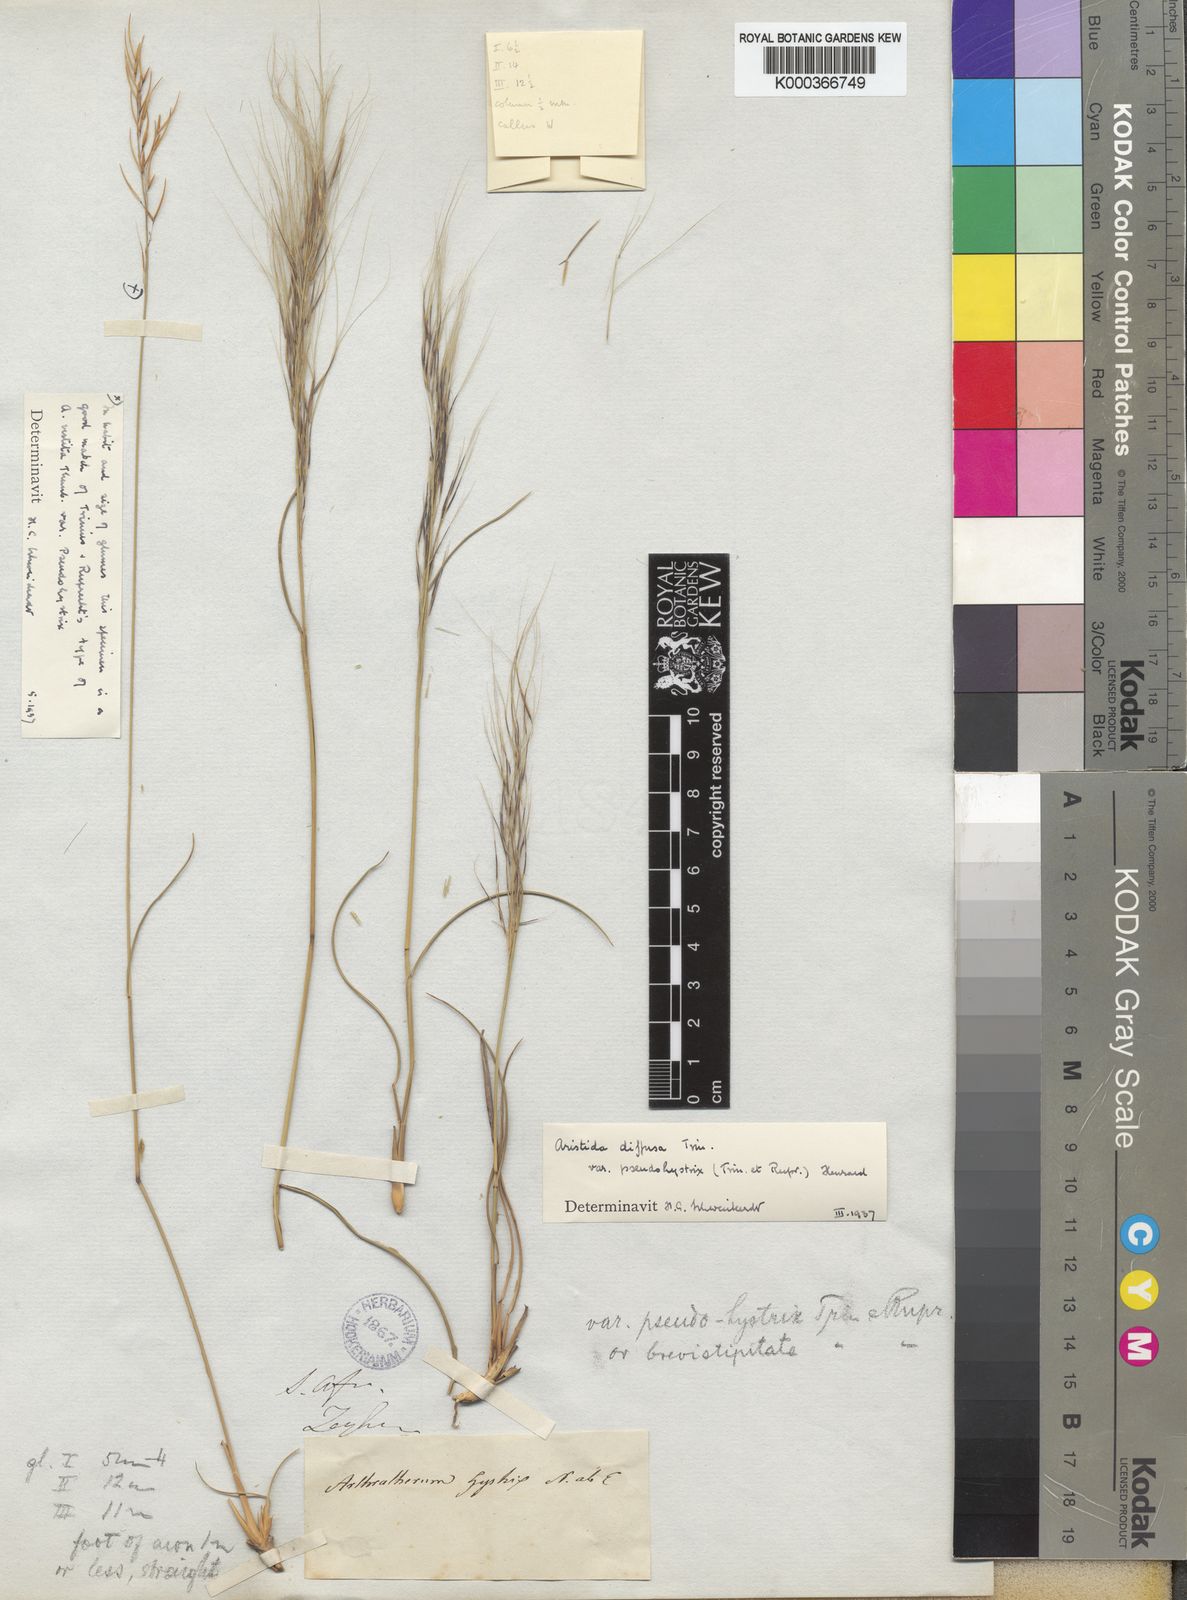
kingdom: Plantae
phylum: Tracheophyta
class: Liliopsida
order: Poales
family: Poaceae
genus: Aristida
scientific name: Aristida diffusa
